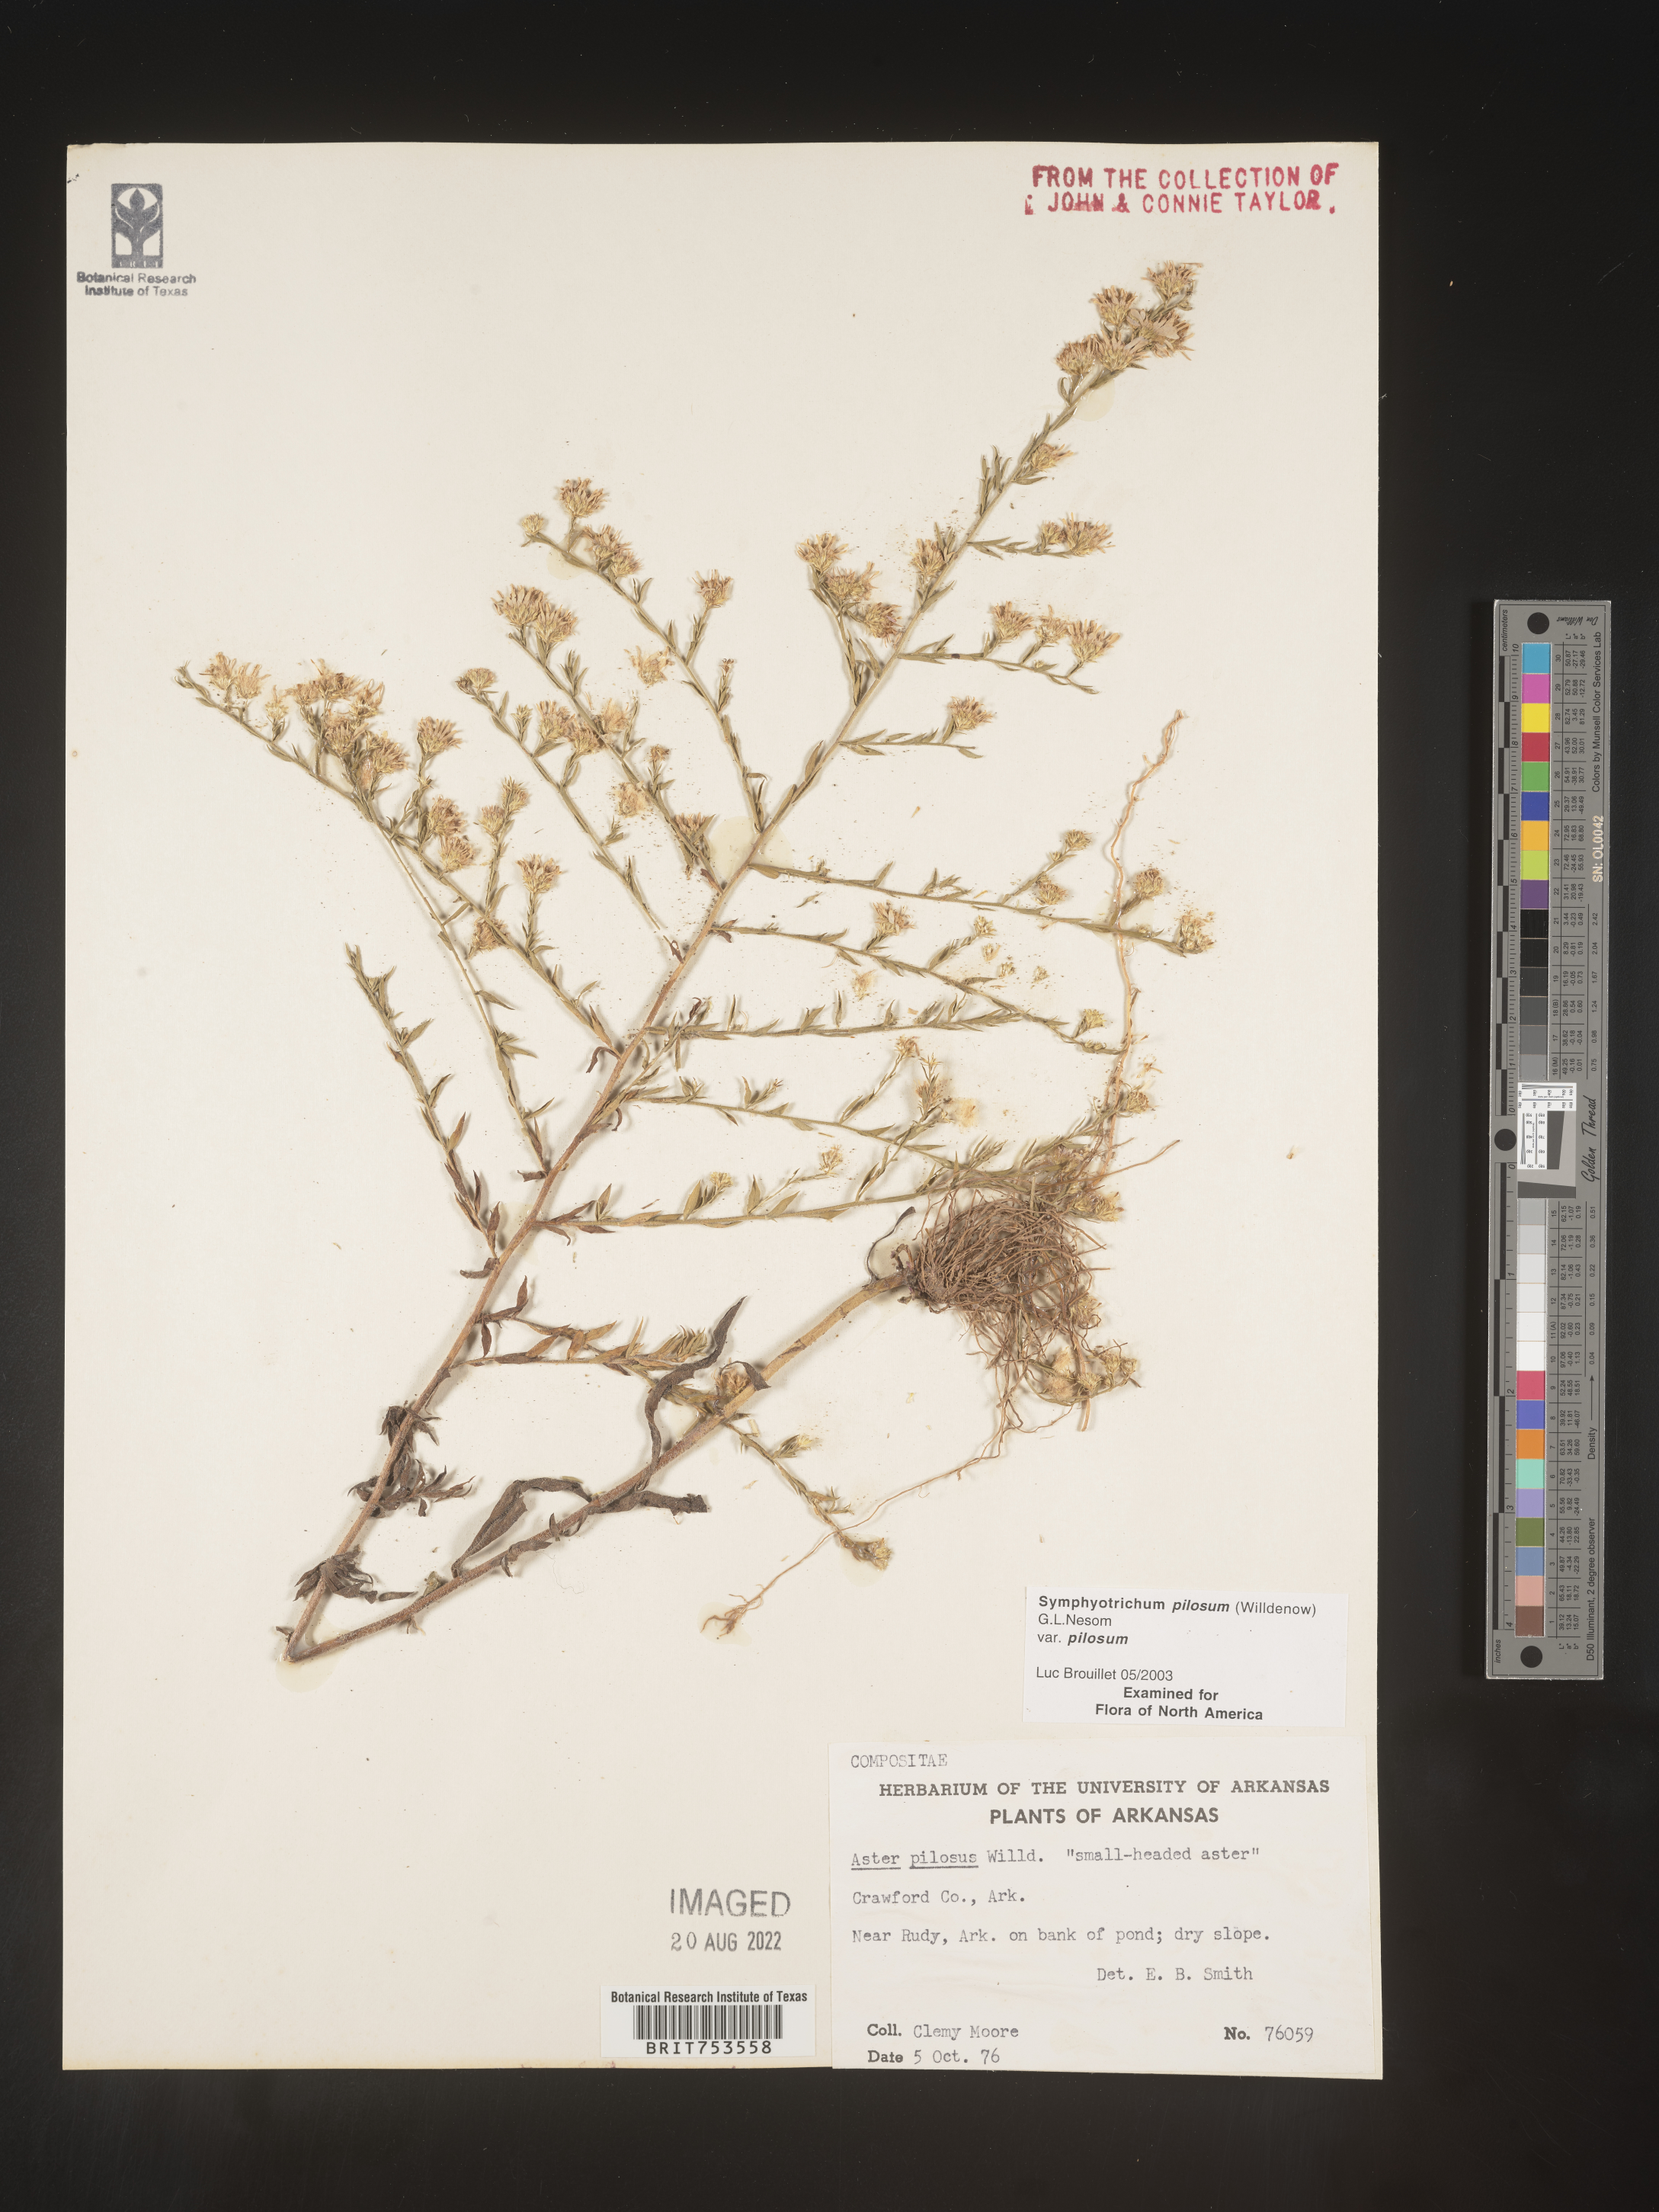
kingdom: Plantae
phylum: Tracheophyta
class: Magnoliopsida
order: Asterales
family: Asteraceae
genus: Symphyotrichum
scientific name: Symphyotrichum pilosum
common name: Awl aster
